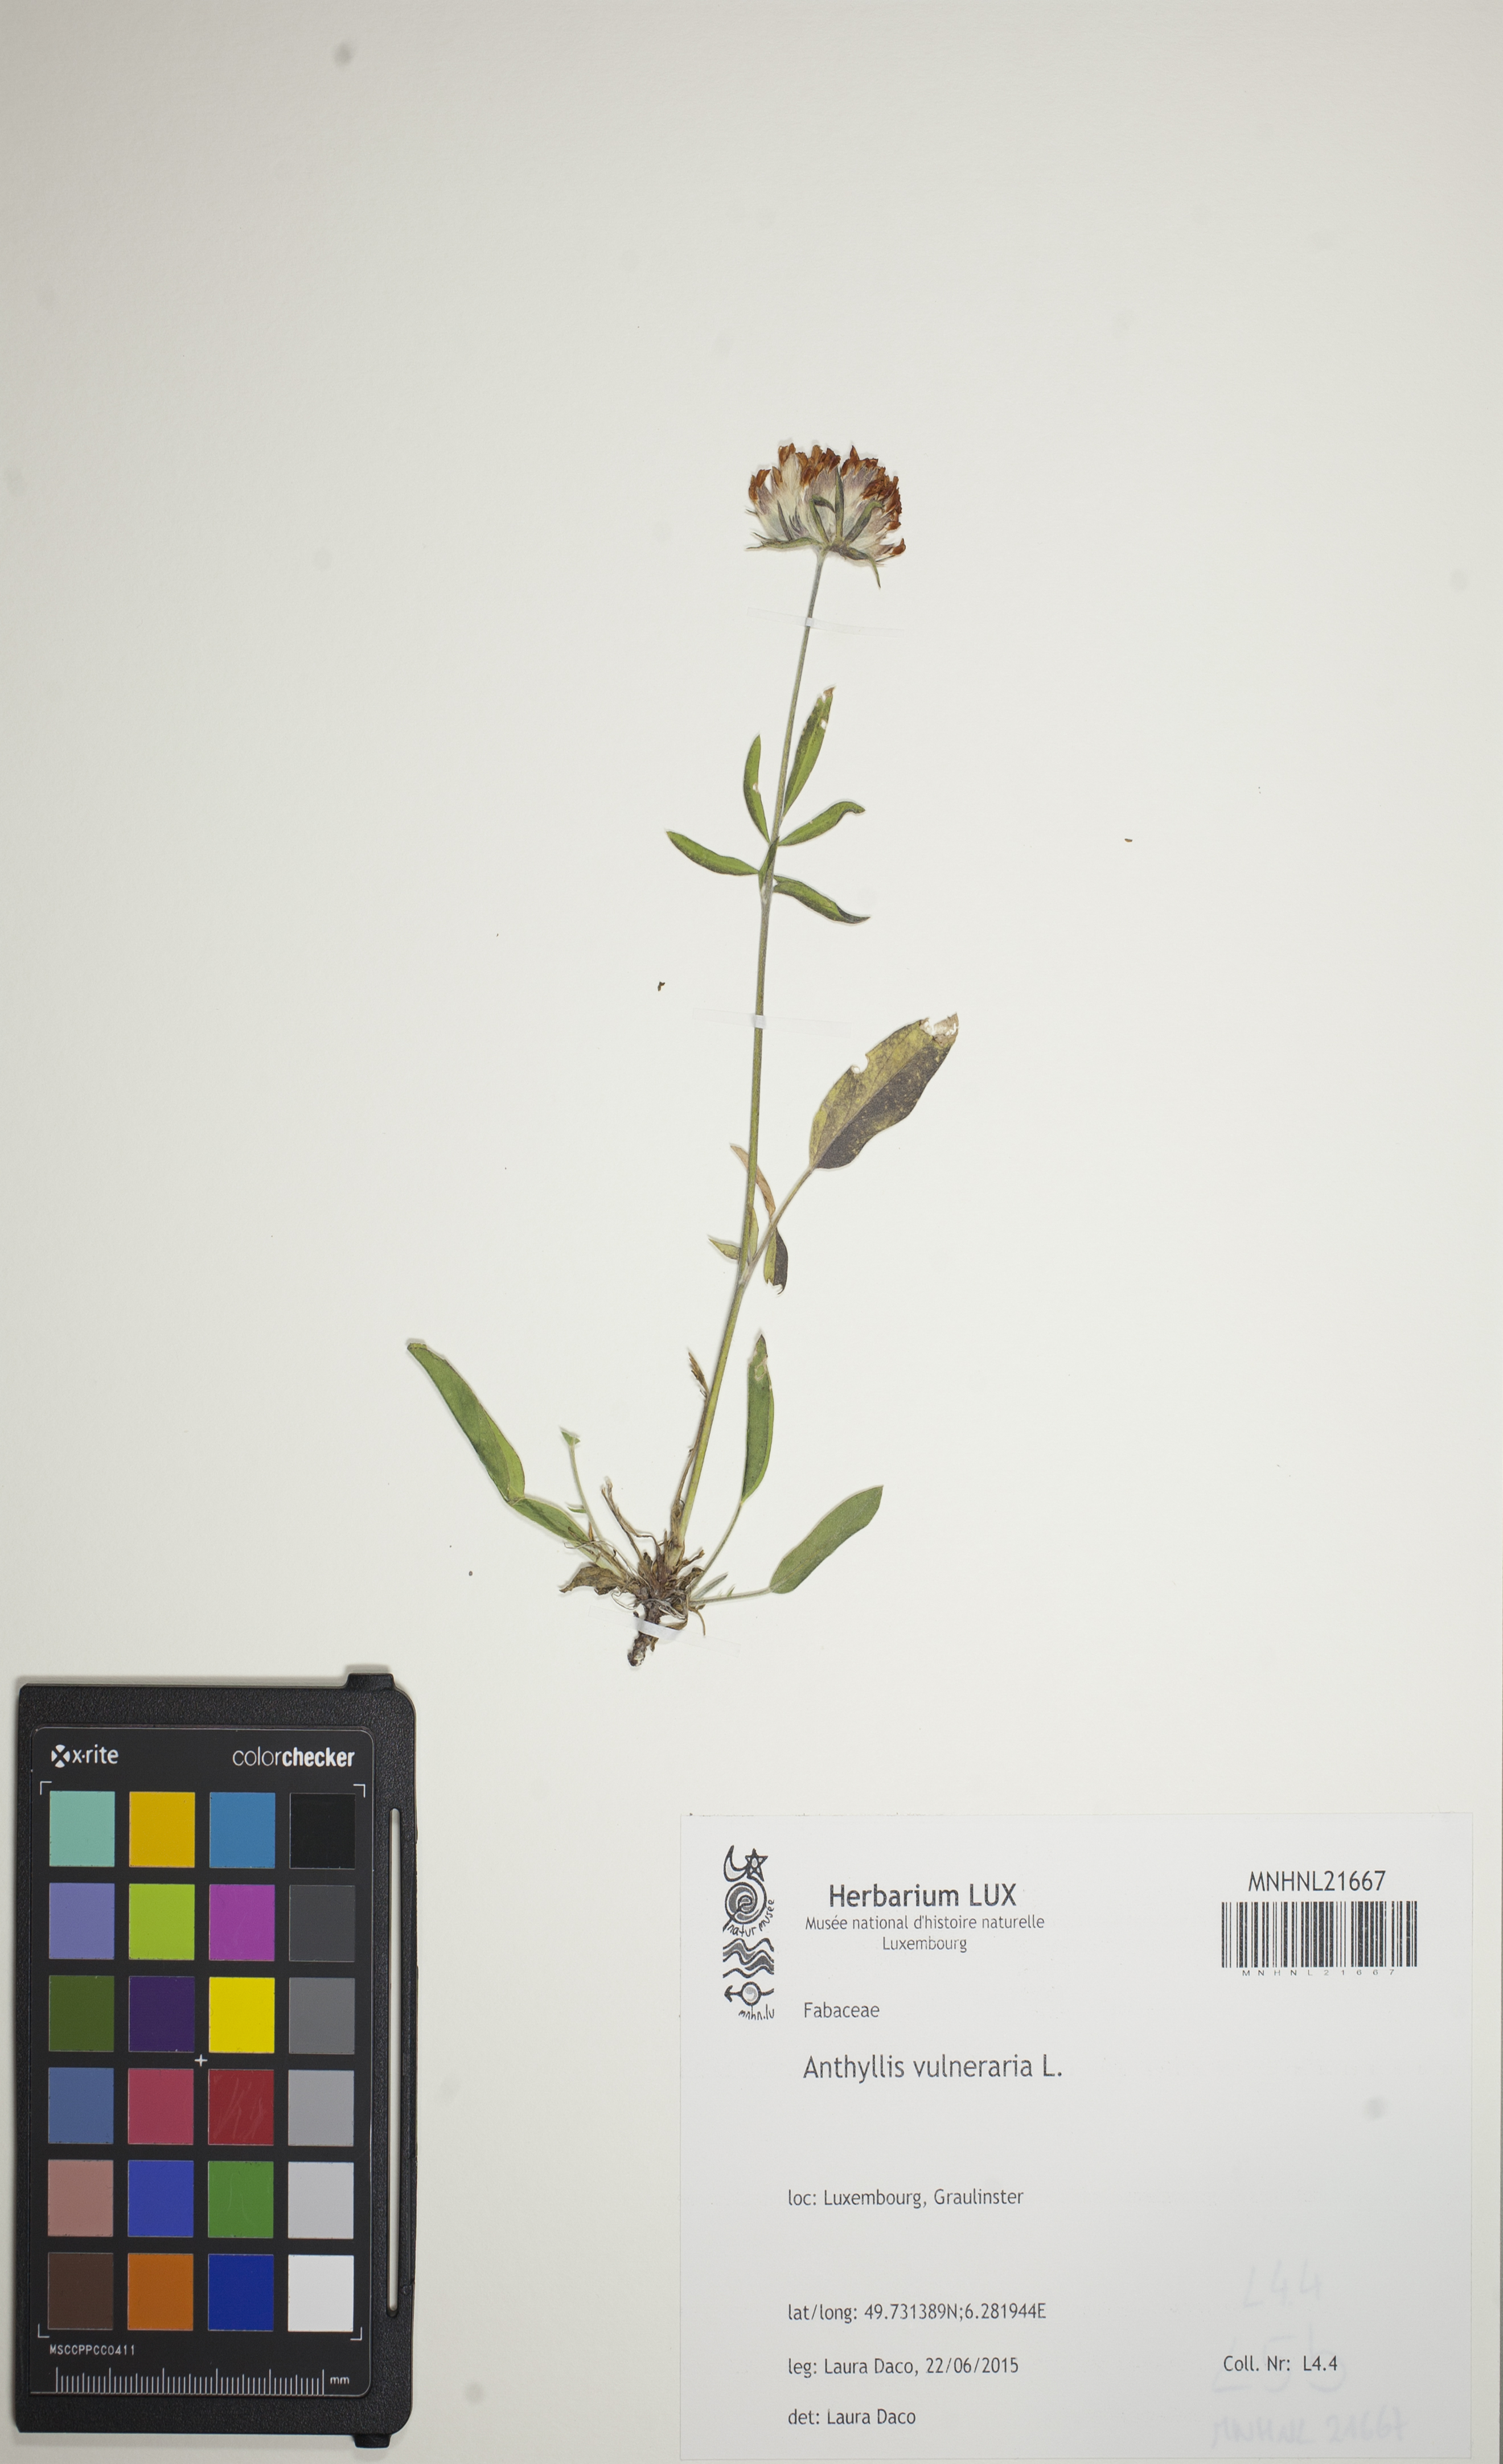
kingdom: Plantae
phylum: Tracheophyta
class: Magnoliopsida
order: Fabales
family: Fabaceae
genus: Anthyllis
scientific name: Anthyllis vulneraria
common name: Kidney vetch
